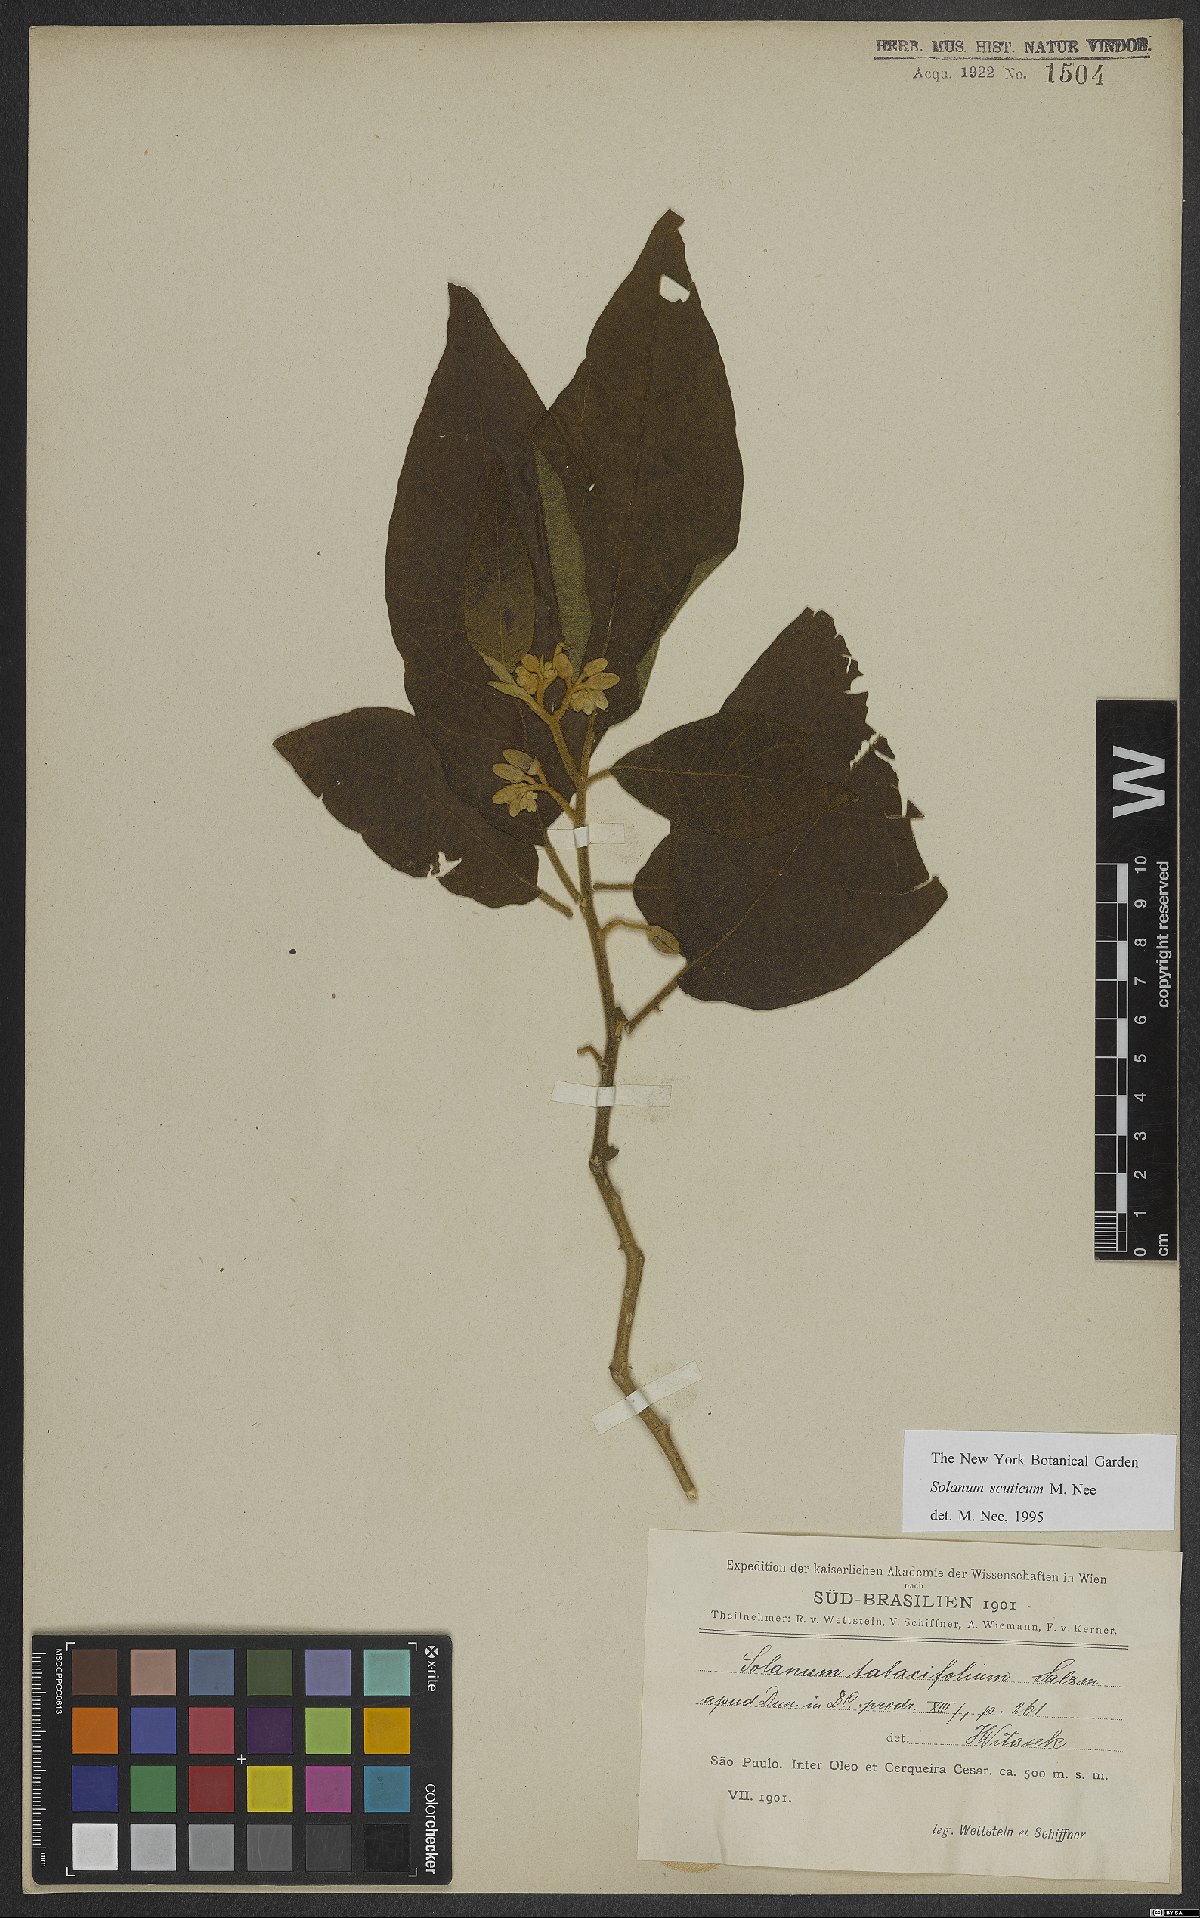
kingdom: Plantae
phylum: Tracheophyta
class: Magnoliopsida
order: Solanales
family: Solanaceae
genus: Solanum
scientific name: Solanum scuticum
